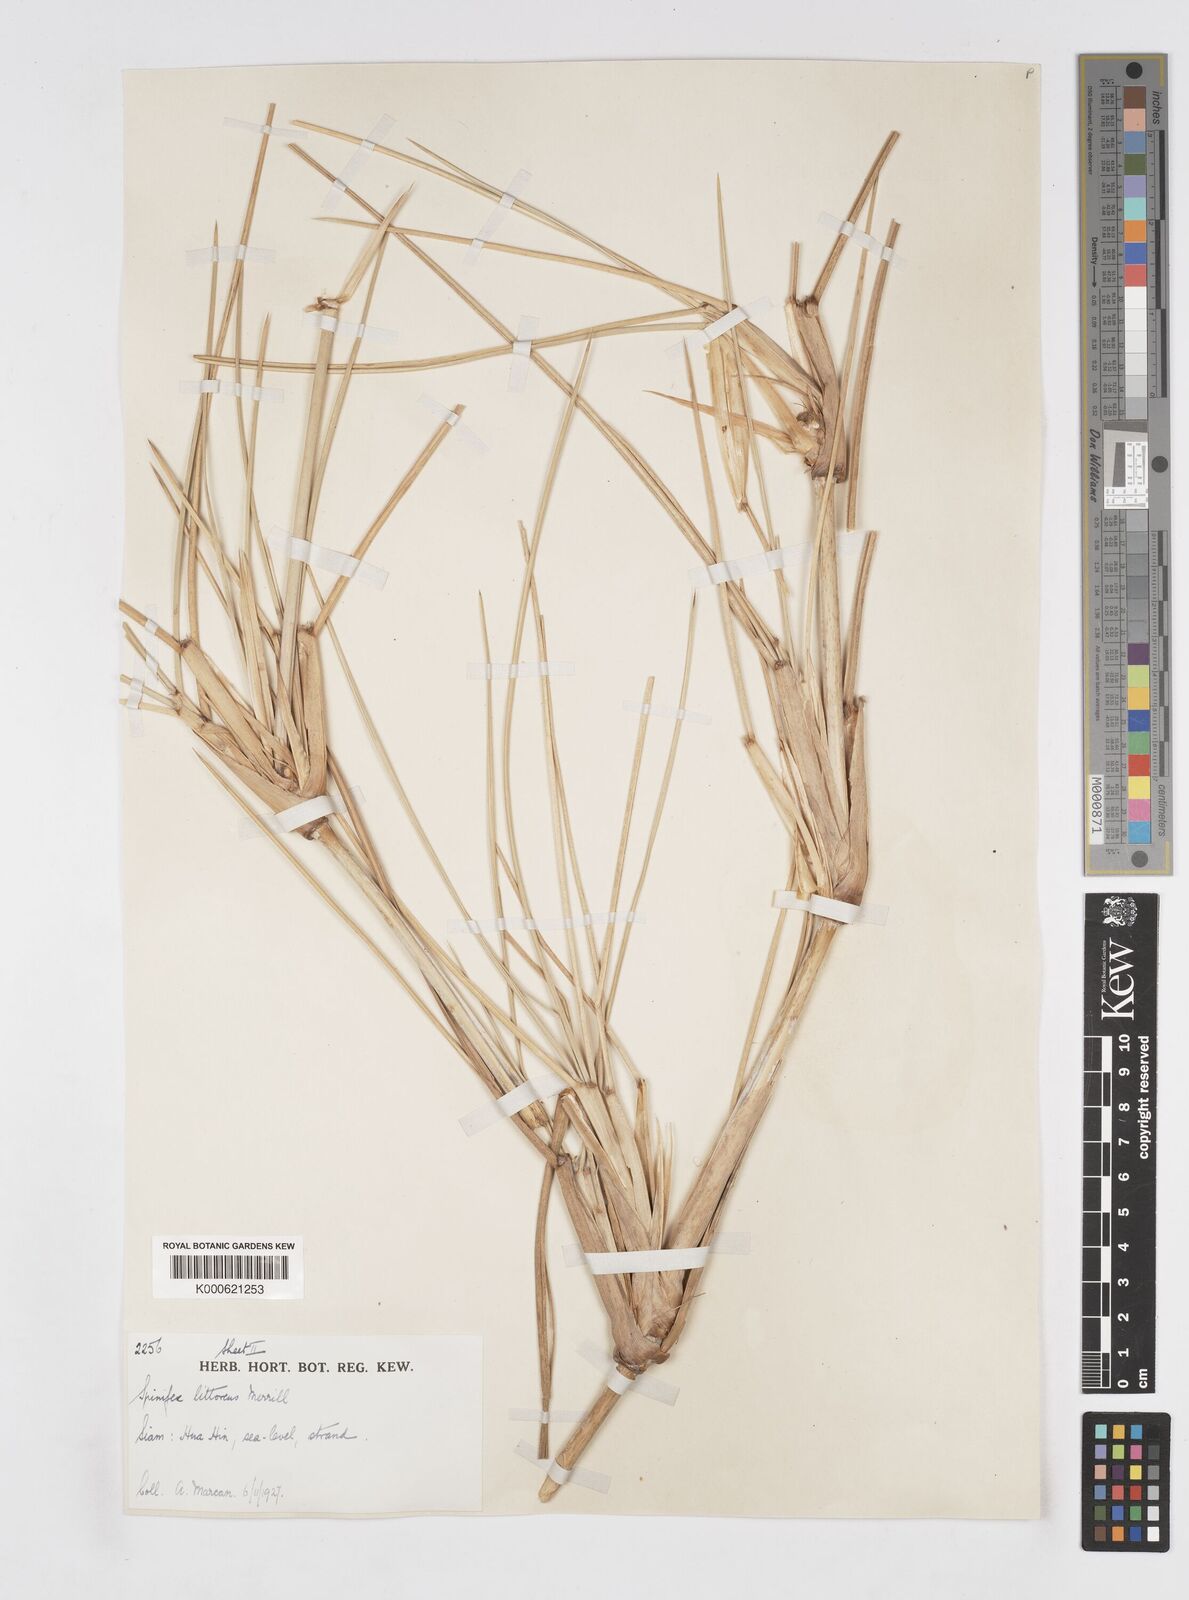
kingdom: Plantae
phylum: Tracheophyta
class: Liliopsida
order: Poales
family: Poaceae
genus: Spinifex
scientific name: Spinifex littoreus
